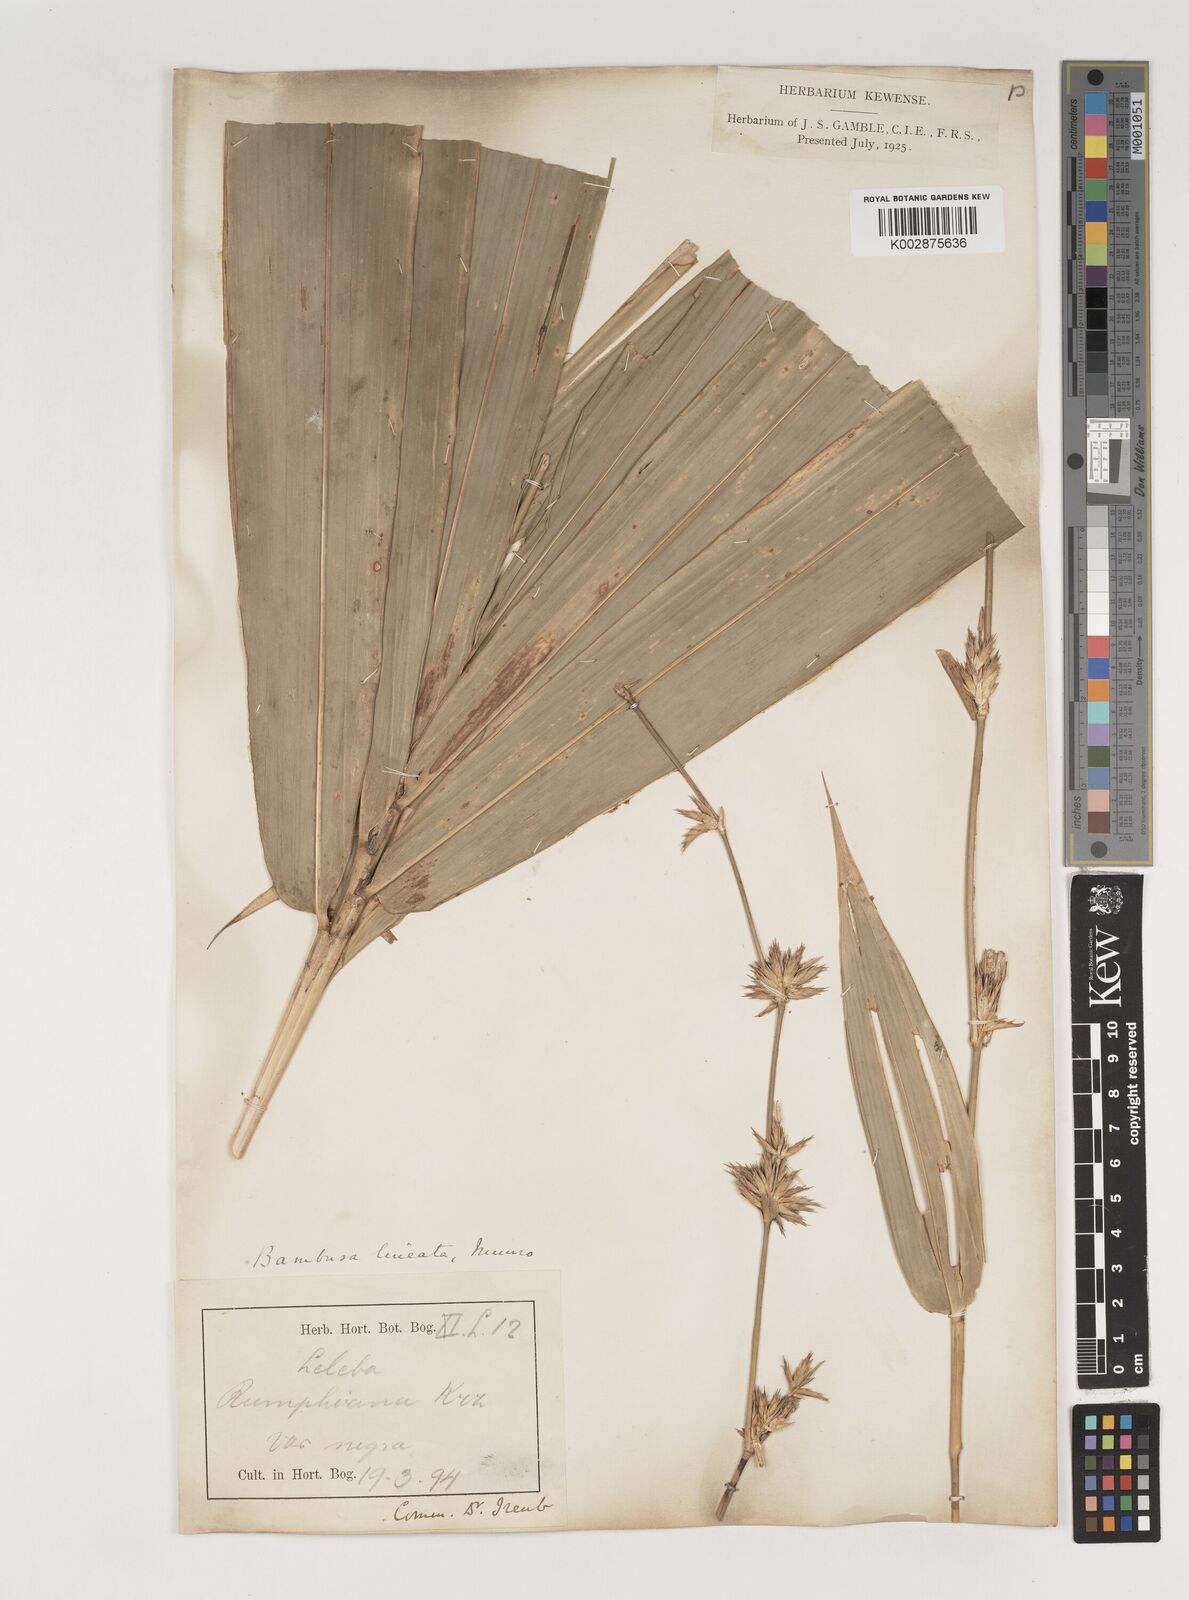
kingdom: Plantae
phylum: Tracheophyta
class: Liliopsida
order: Poales
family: Poaceae
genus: Neololeba
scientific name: Neololeba atra
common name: Cape bamboo
